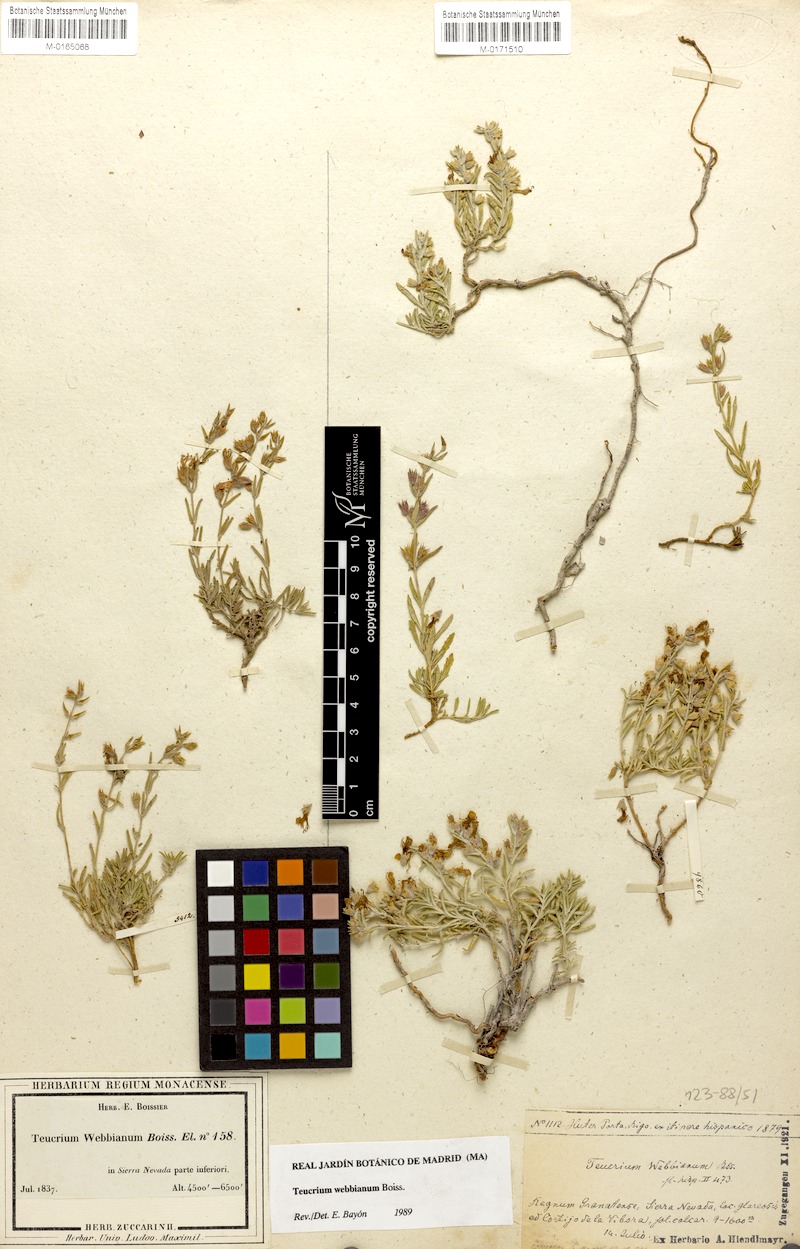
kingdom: Plantae
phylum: Tracheophyta
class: Magnoliopsida
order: Lamiales
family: Lamiaceae
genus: Teucrium
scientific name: Teucrium webbianum
